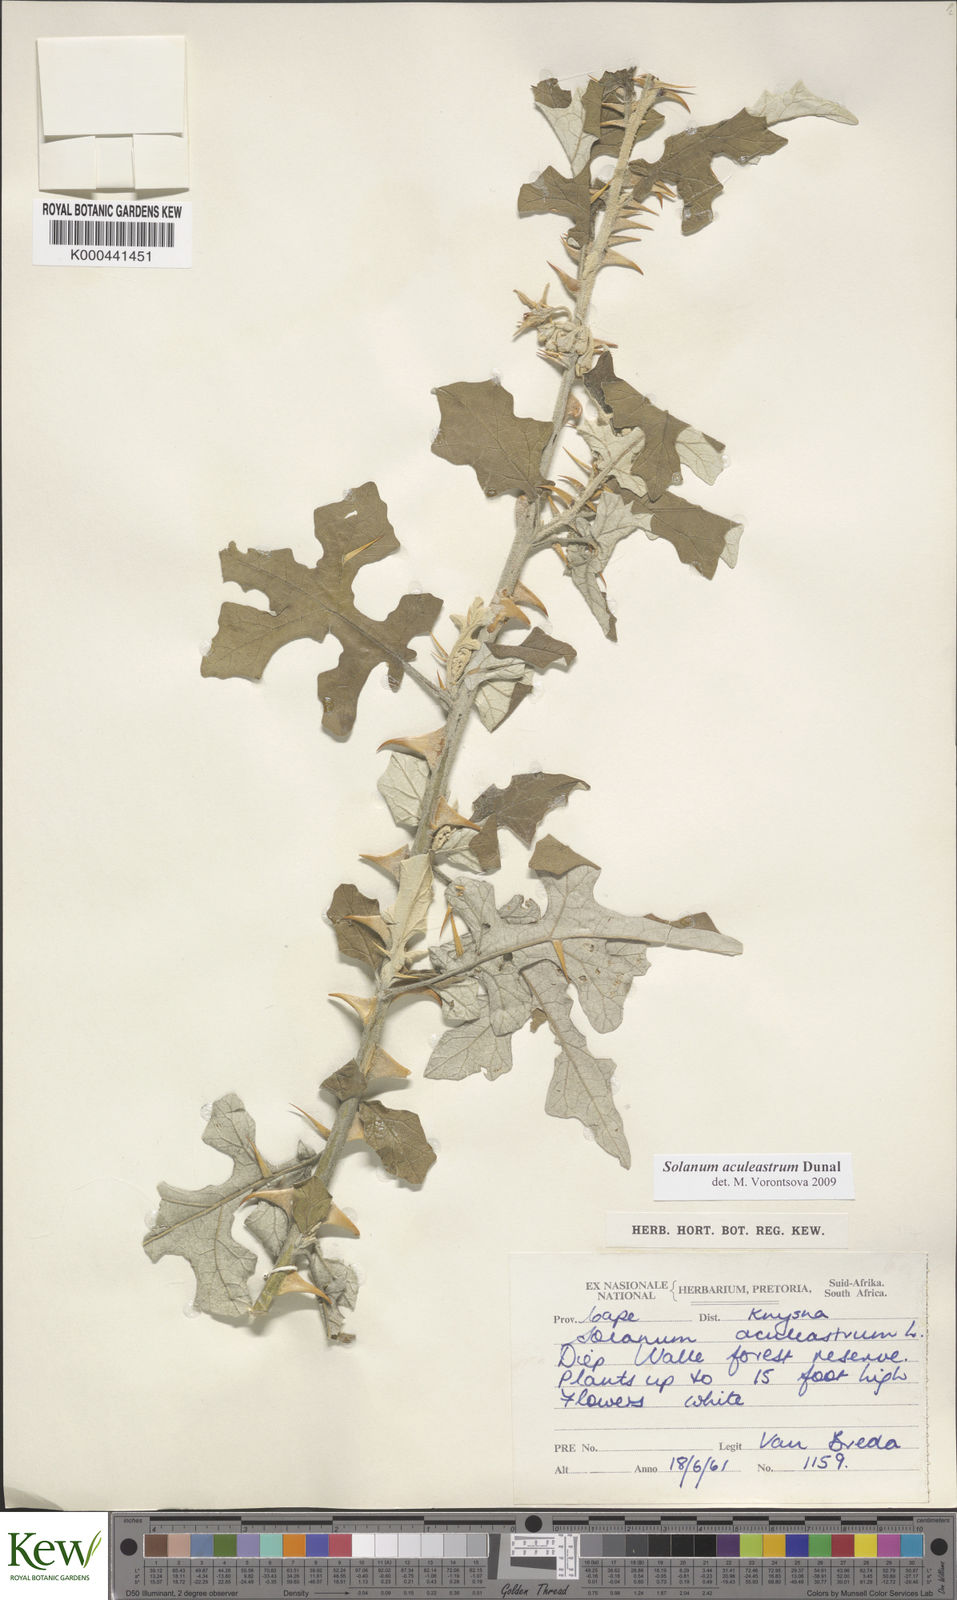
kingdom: Plantae
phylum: Tracheophyta
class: Magnoliopsida
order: Solanales
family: Solanaceae
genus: Solanum
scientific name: Solanum aculeastrum
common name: Goat bitter-apple
